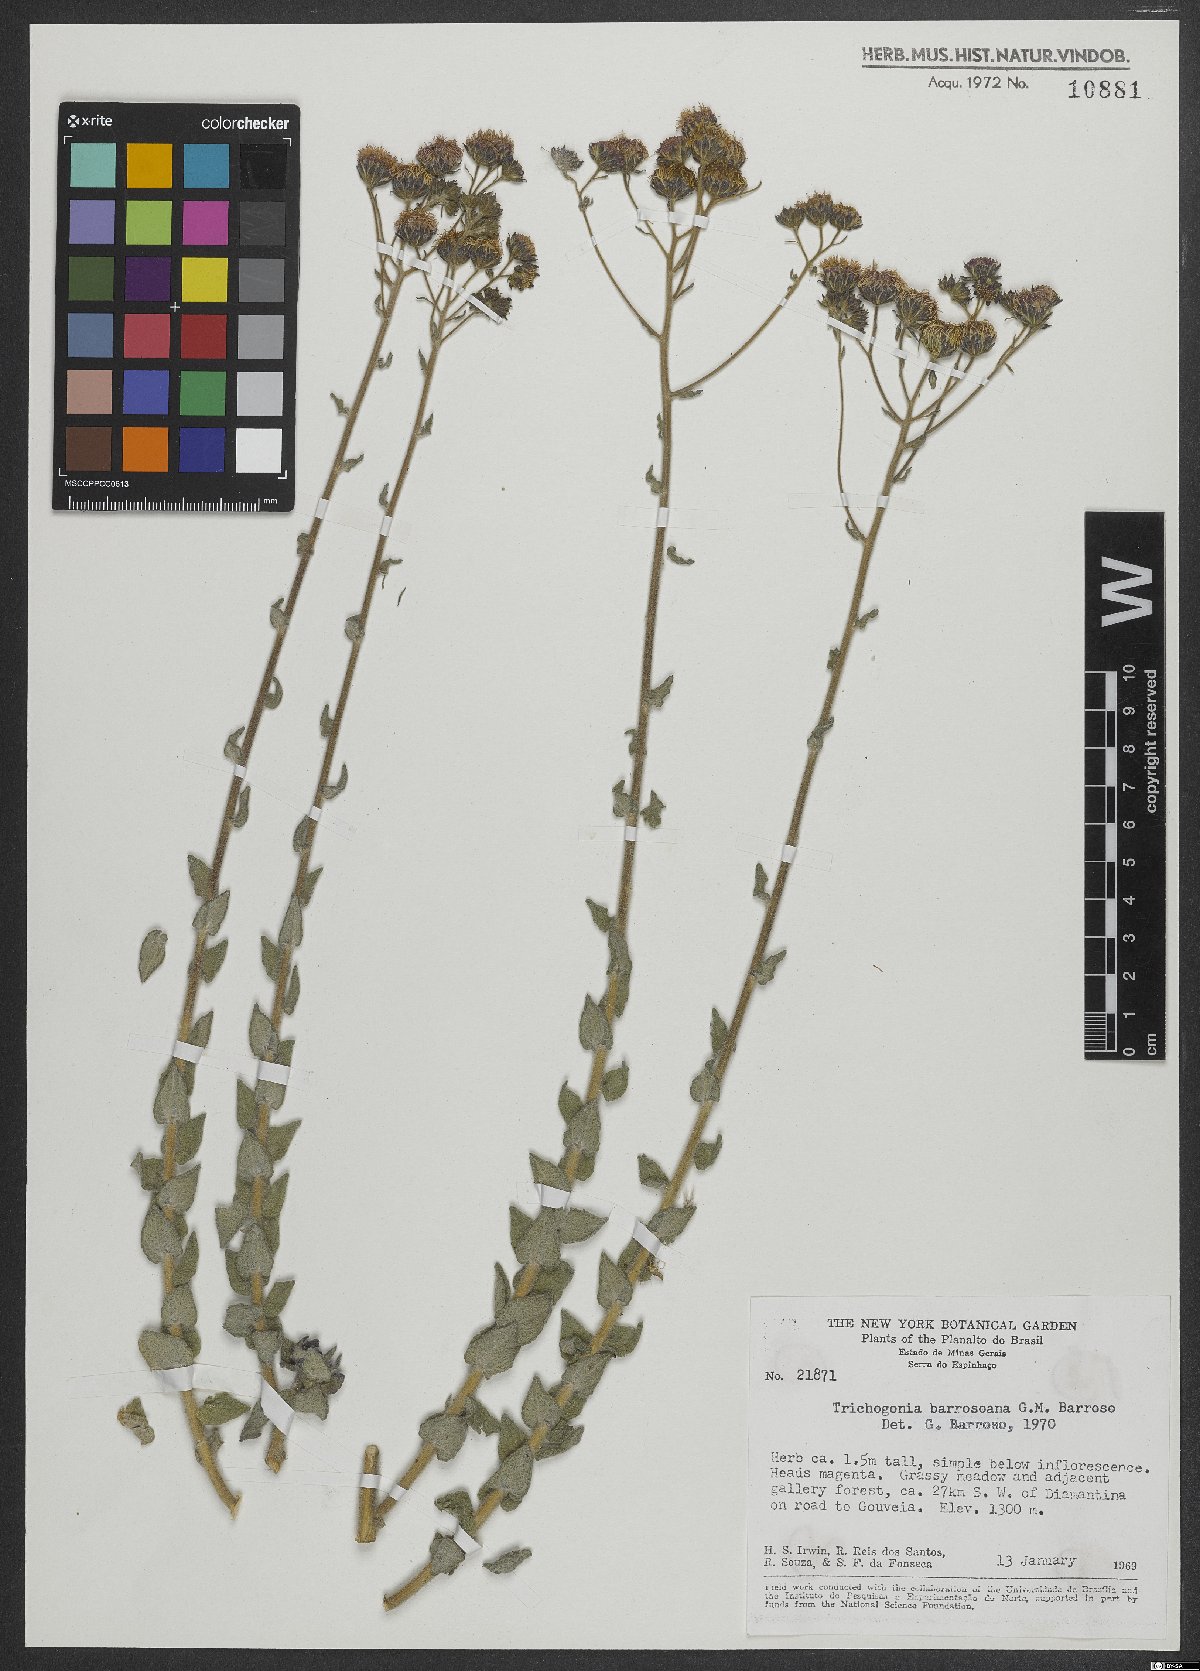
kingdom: Plantae
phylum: Tracheophyta
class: Magnoliopsida
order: Asterales
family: Asteraceae
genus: Campuloclinium
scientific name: Campuloclinium campuloclinioides
